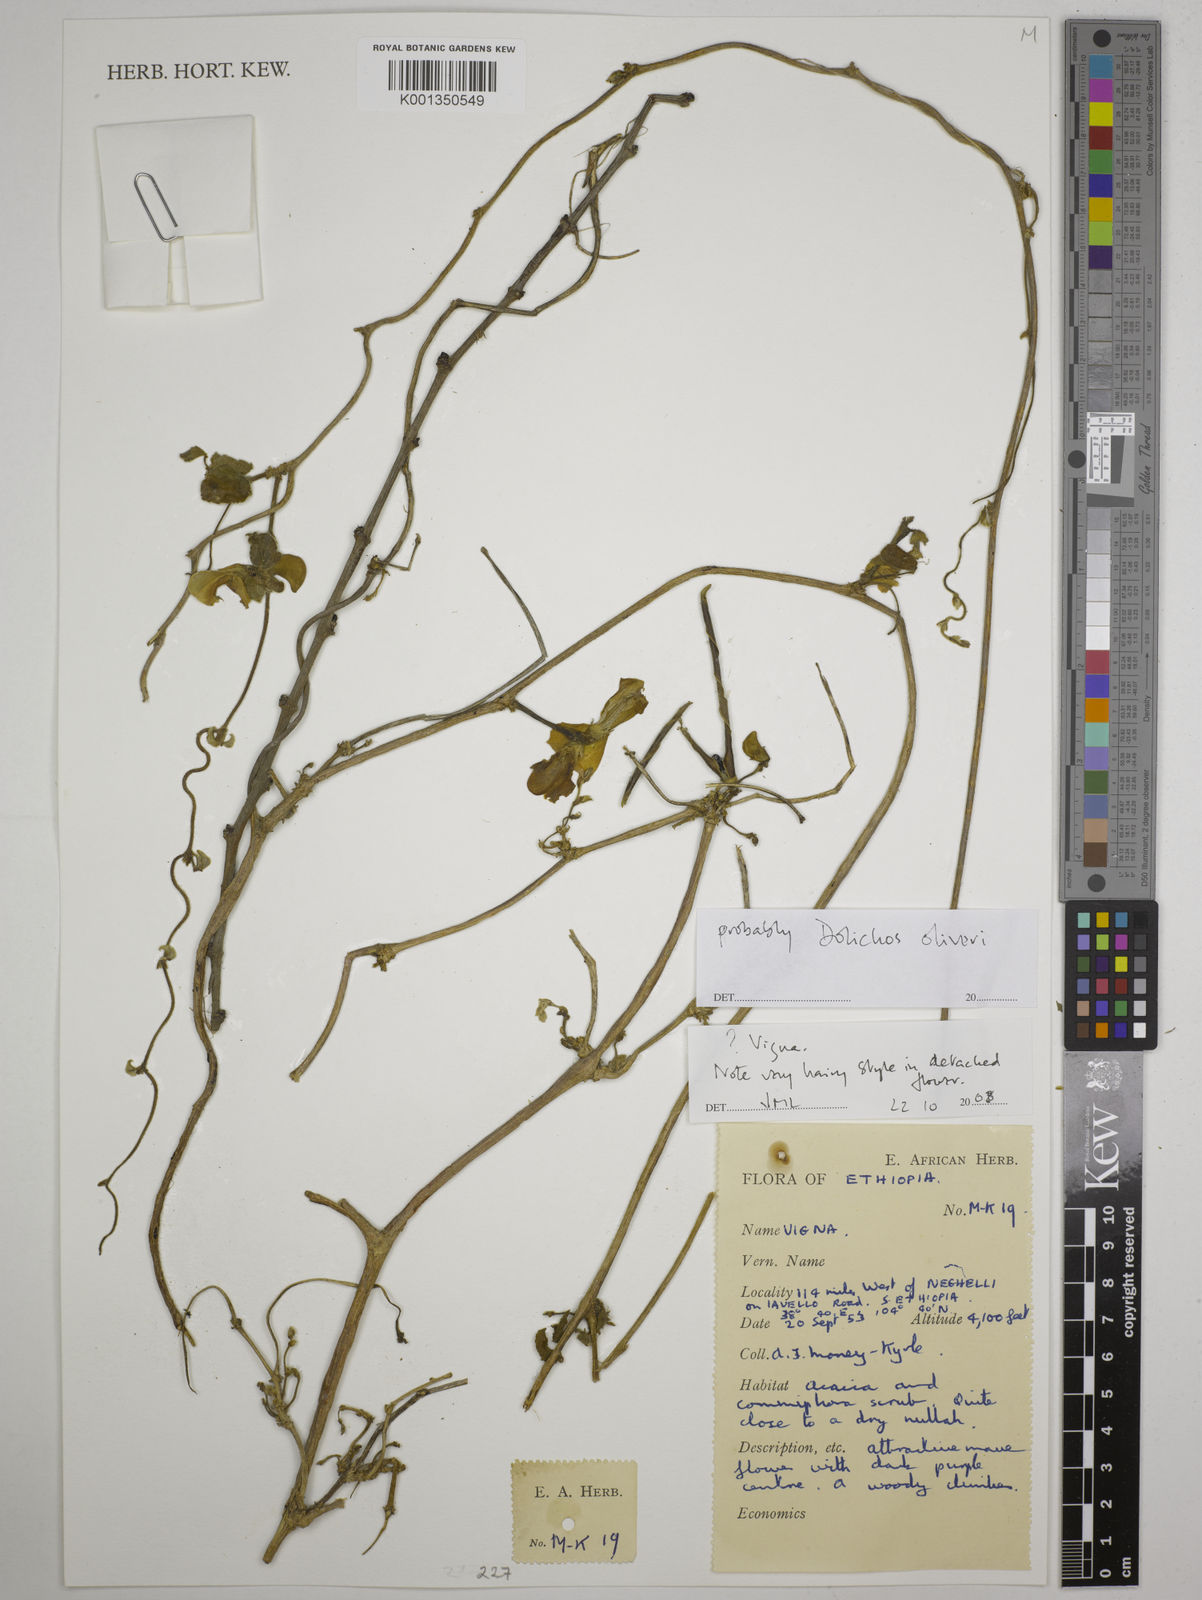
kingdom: Plantae
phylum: Tracheophyta
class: Magnoliopsida
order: Fabales
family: Fabaceae
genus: Dolichos
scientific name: Dolichos oliveri
